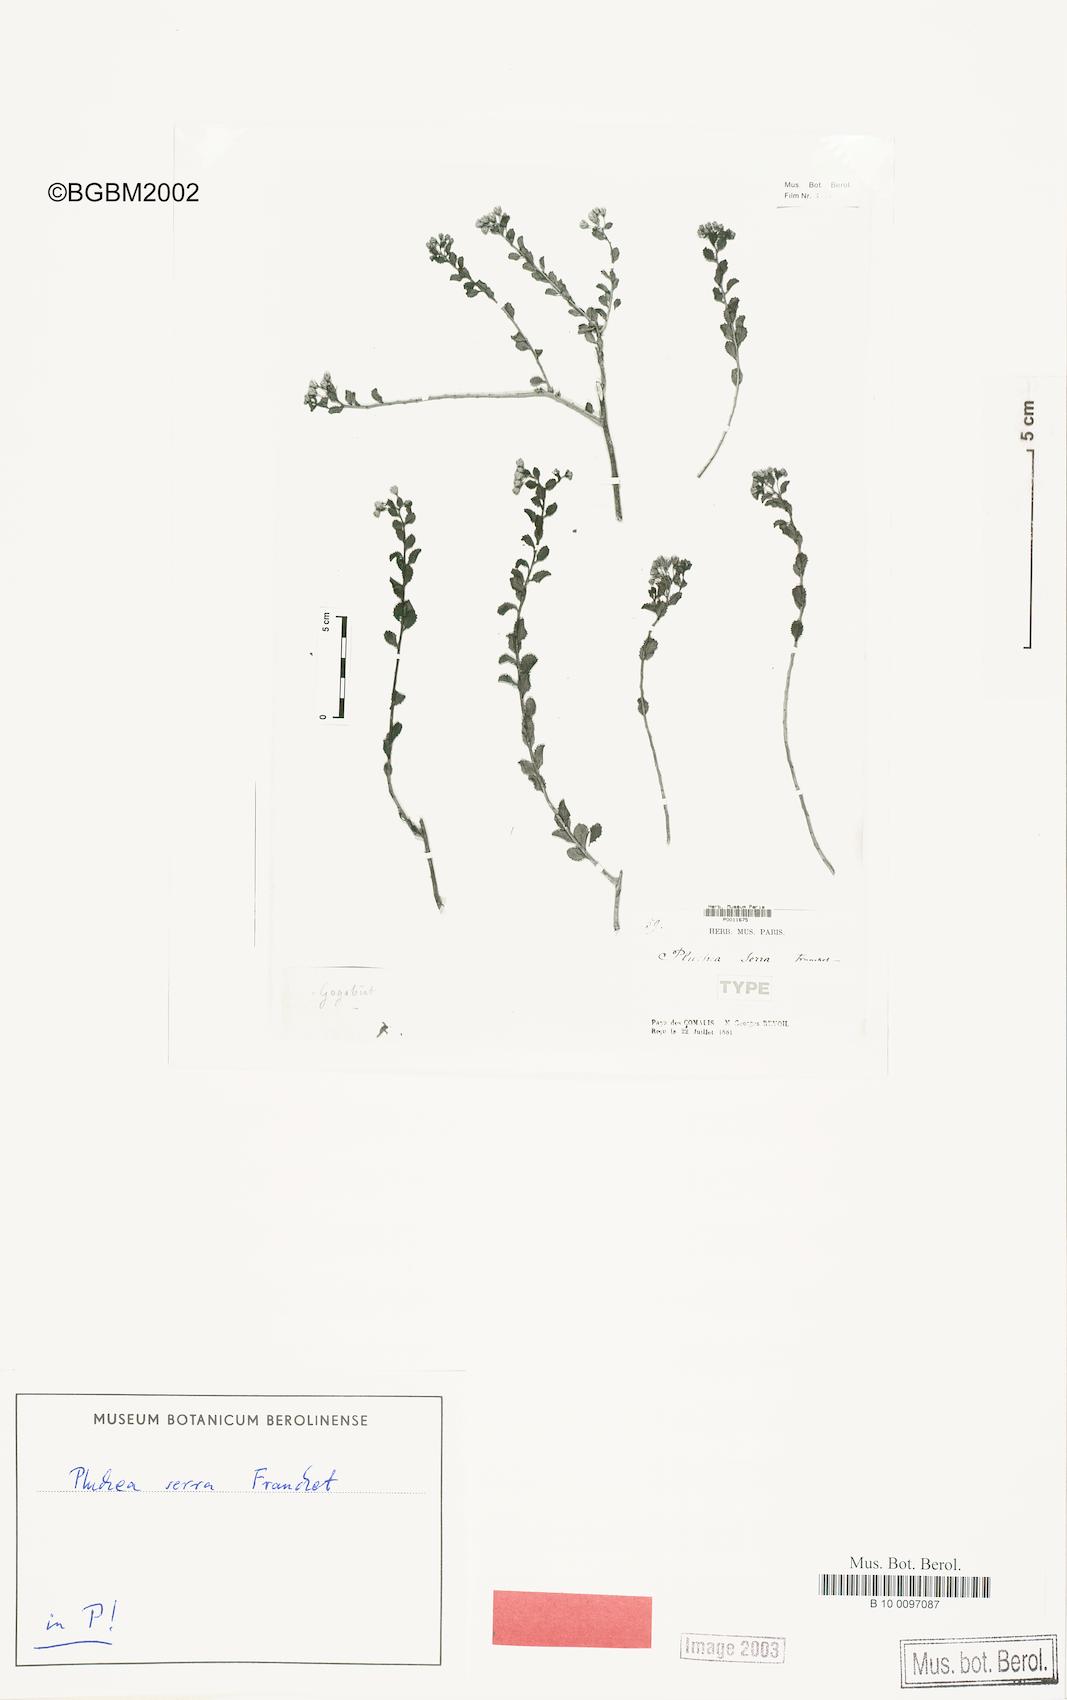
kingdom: Plantae
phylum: Tracheophyta
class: Magnoliopsida
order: Asterales
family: Asteraceae
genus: Iphionopsis
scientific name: Iphionopsis rotundifolia
